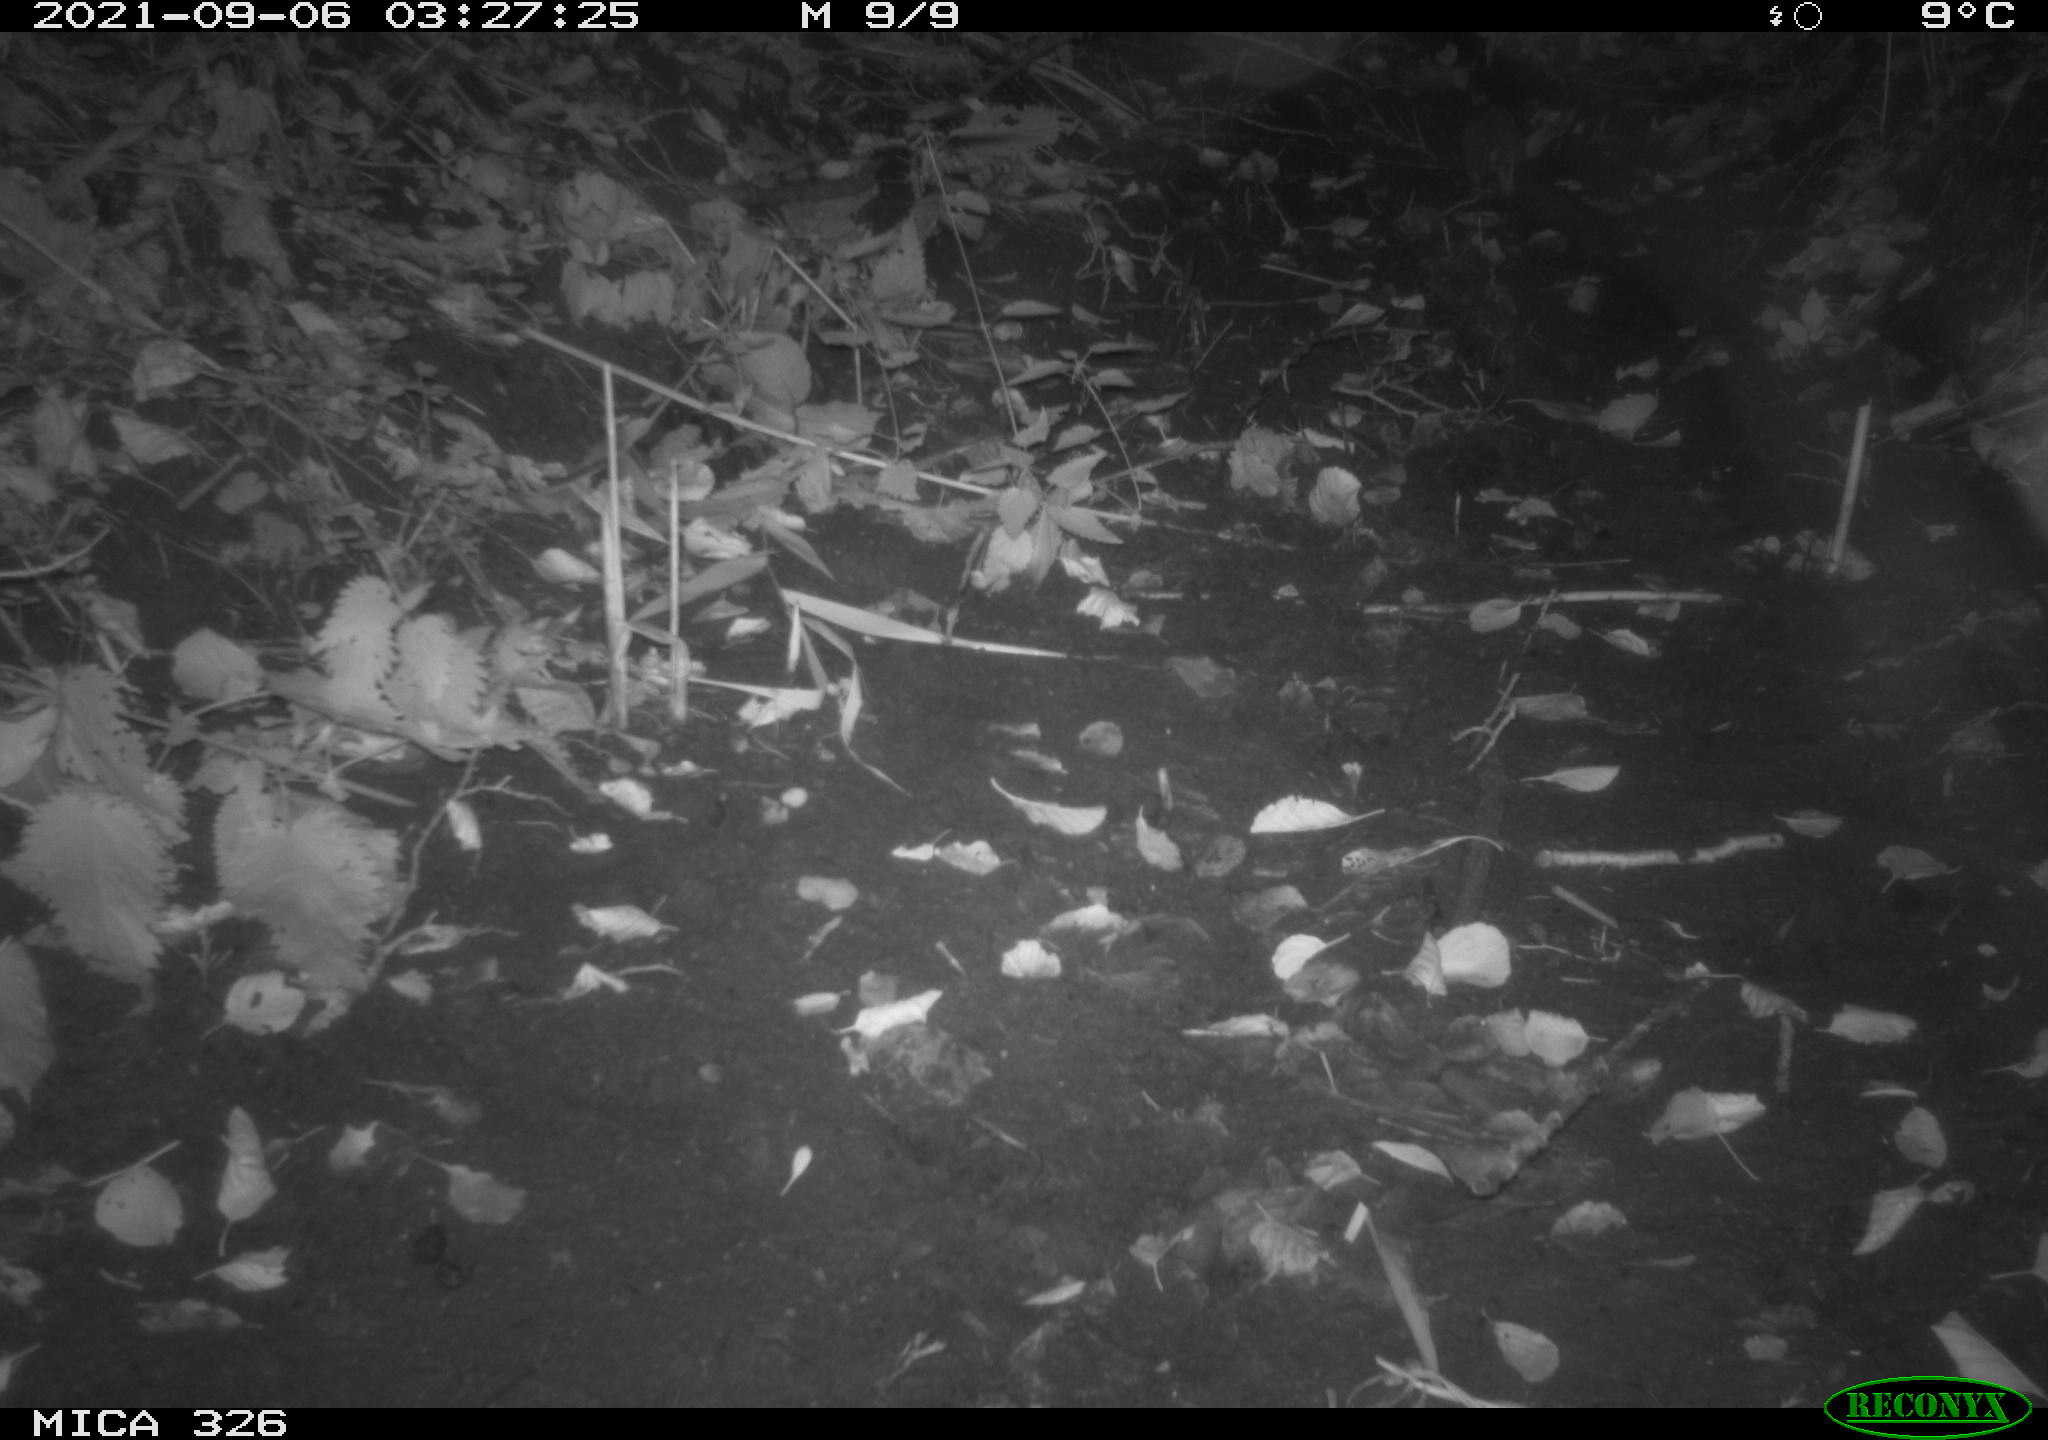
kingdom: Animalia
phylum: Chordata
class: Mammalia
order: Rodentia
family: Muridae
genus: Rattus
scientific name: Rattus norvegicus
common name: Brown rat
